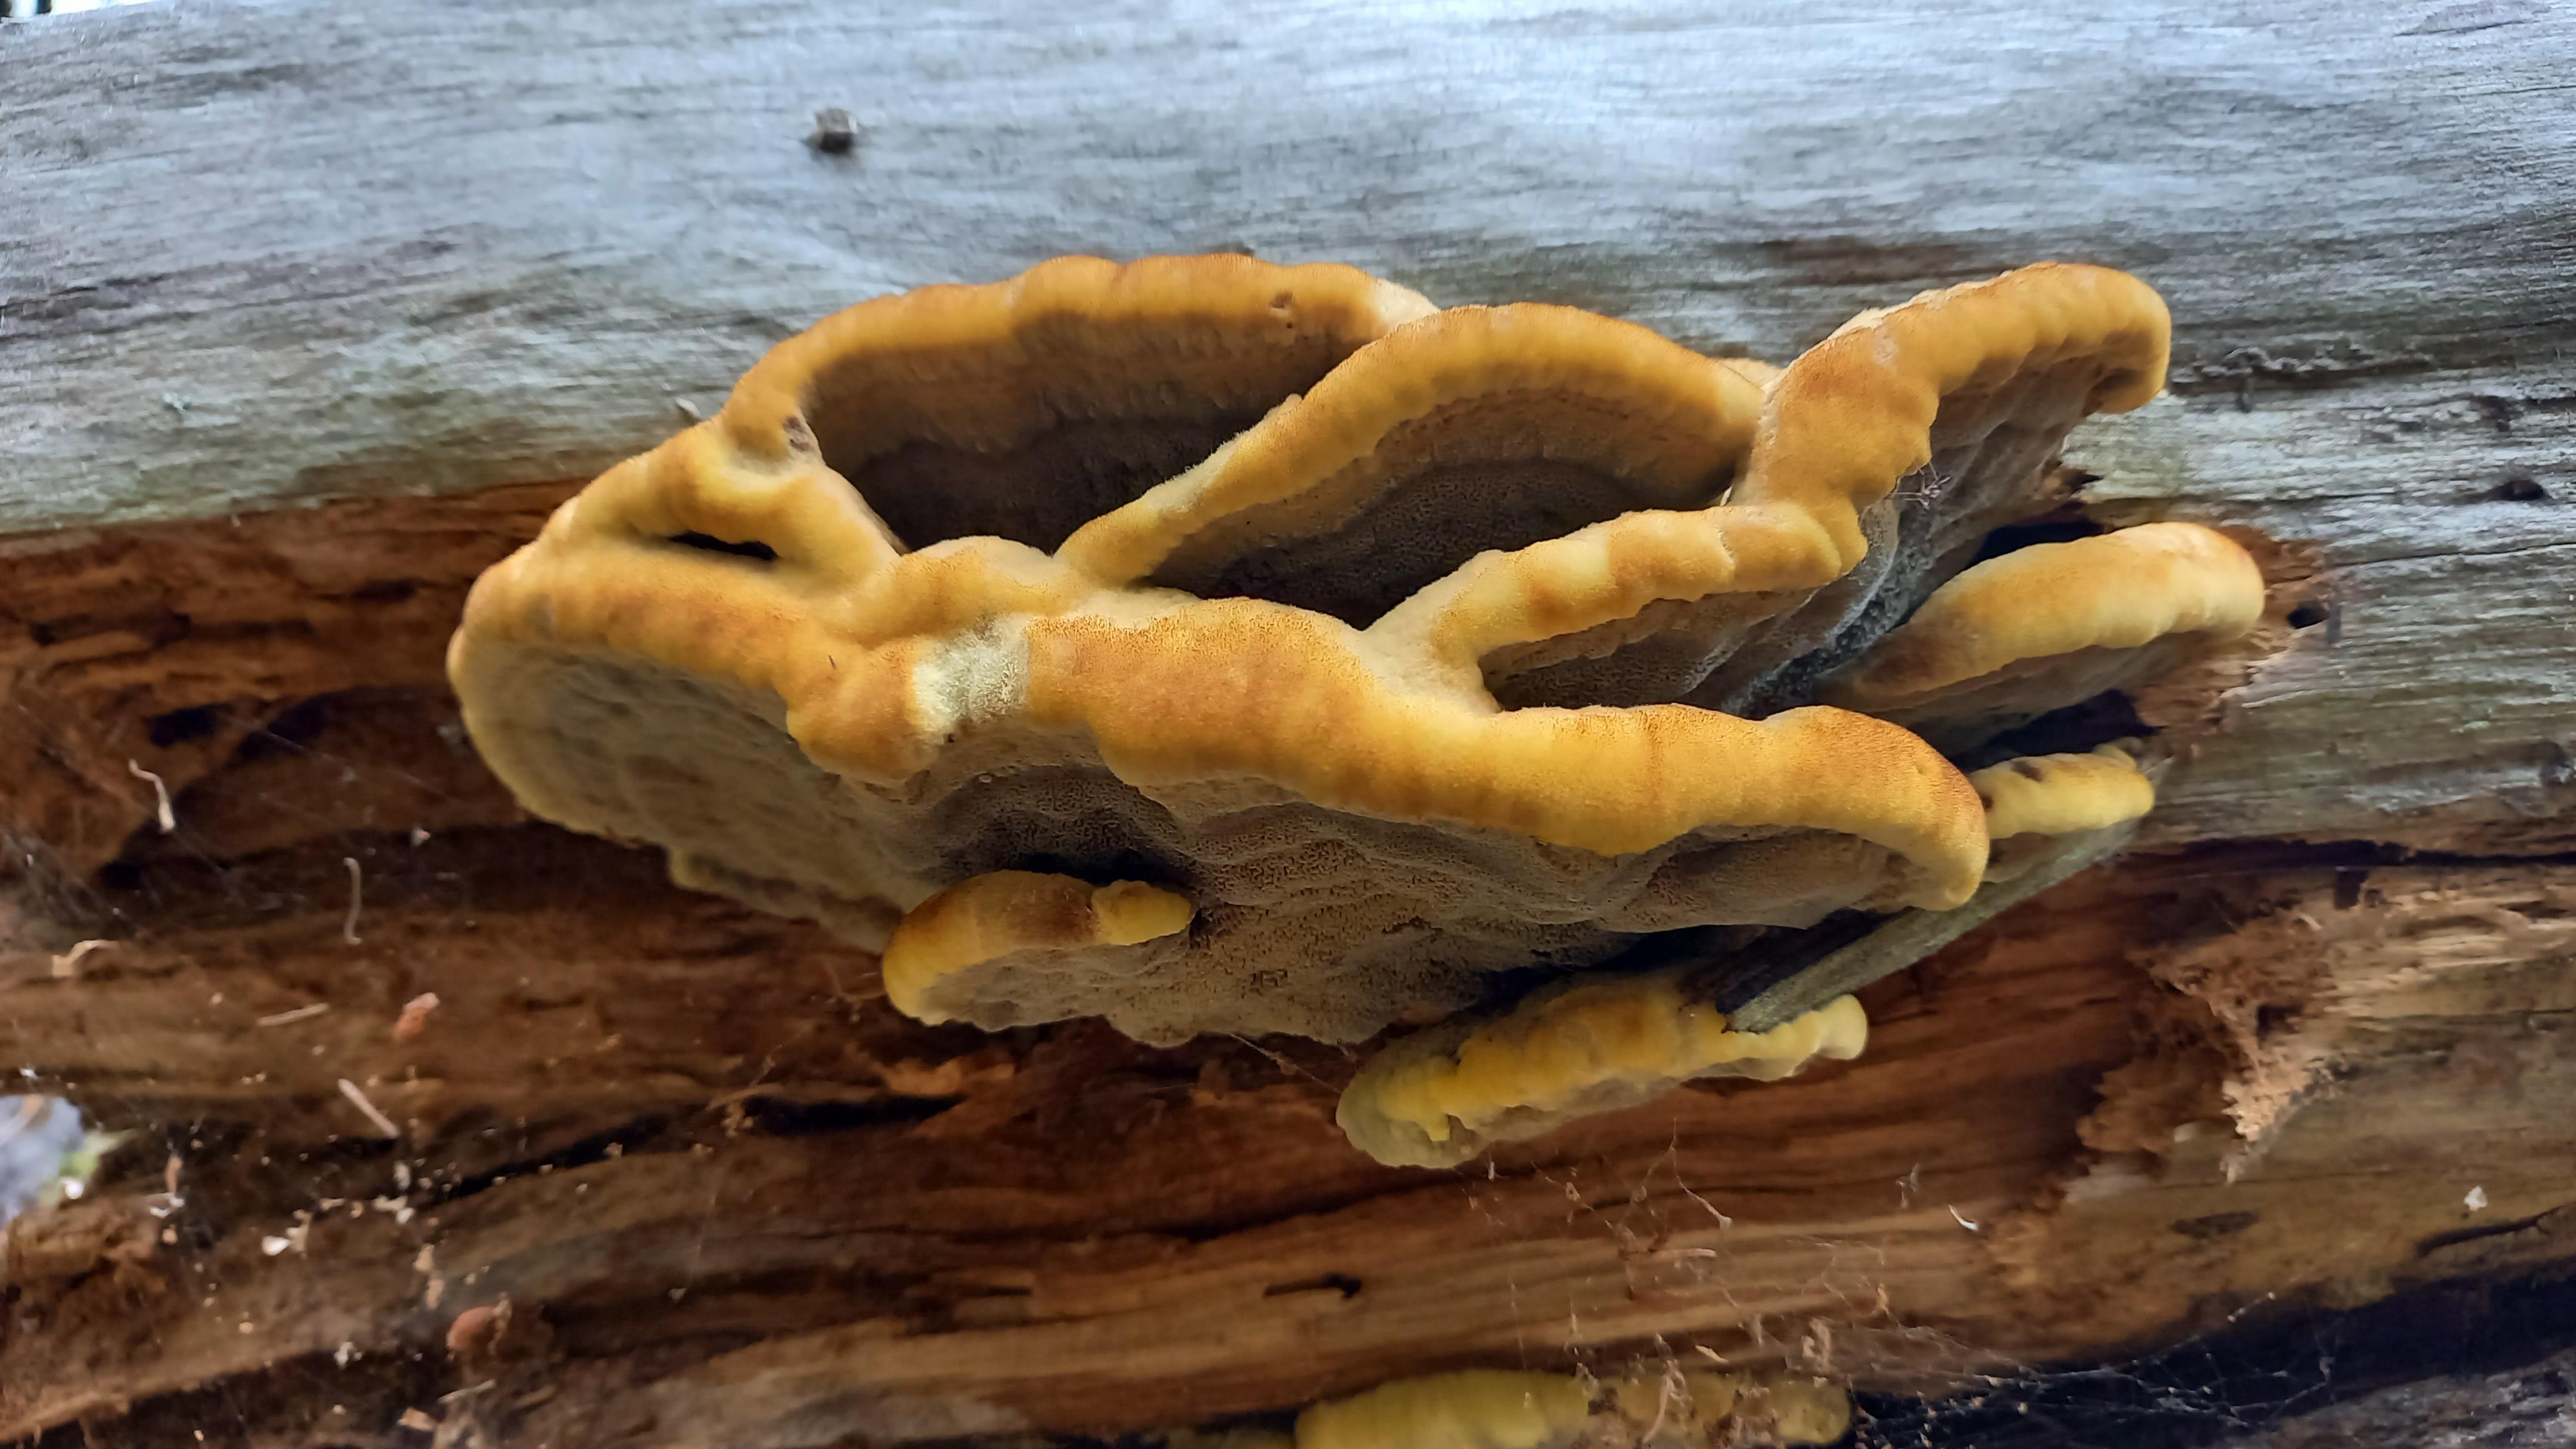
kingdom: Fungi
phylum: Basidiomycota
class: Agaricomycetes
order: Polyporales
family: Laetiporaceae
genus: Phaeolus
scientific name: Phaeolus schweinitzii
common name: brunporesvamp
